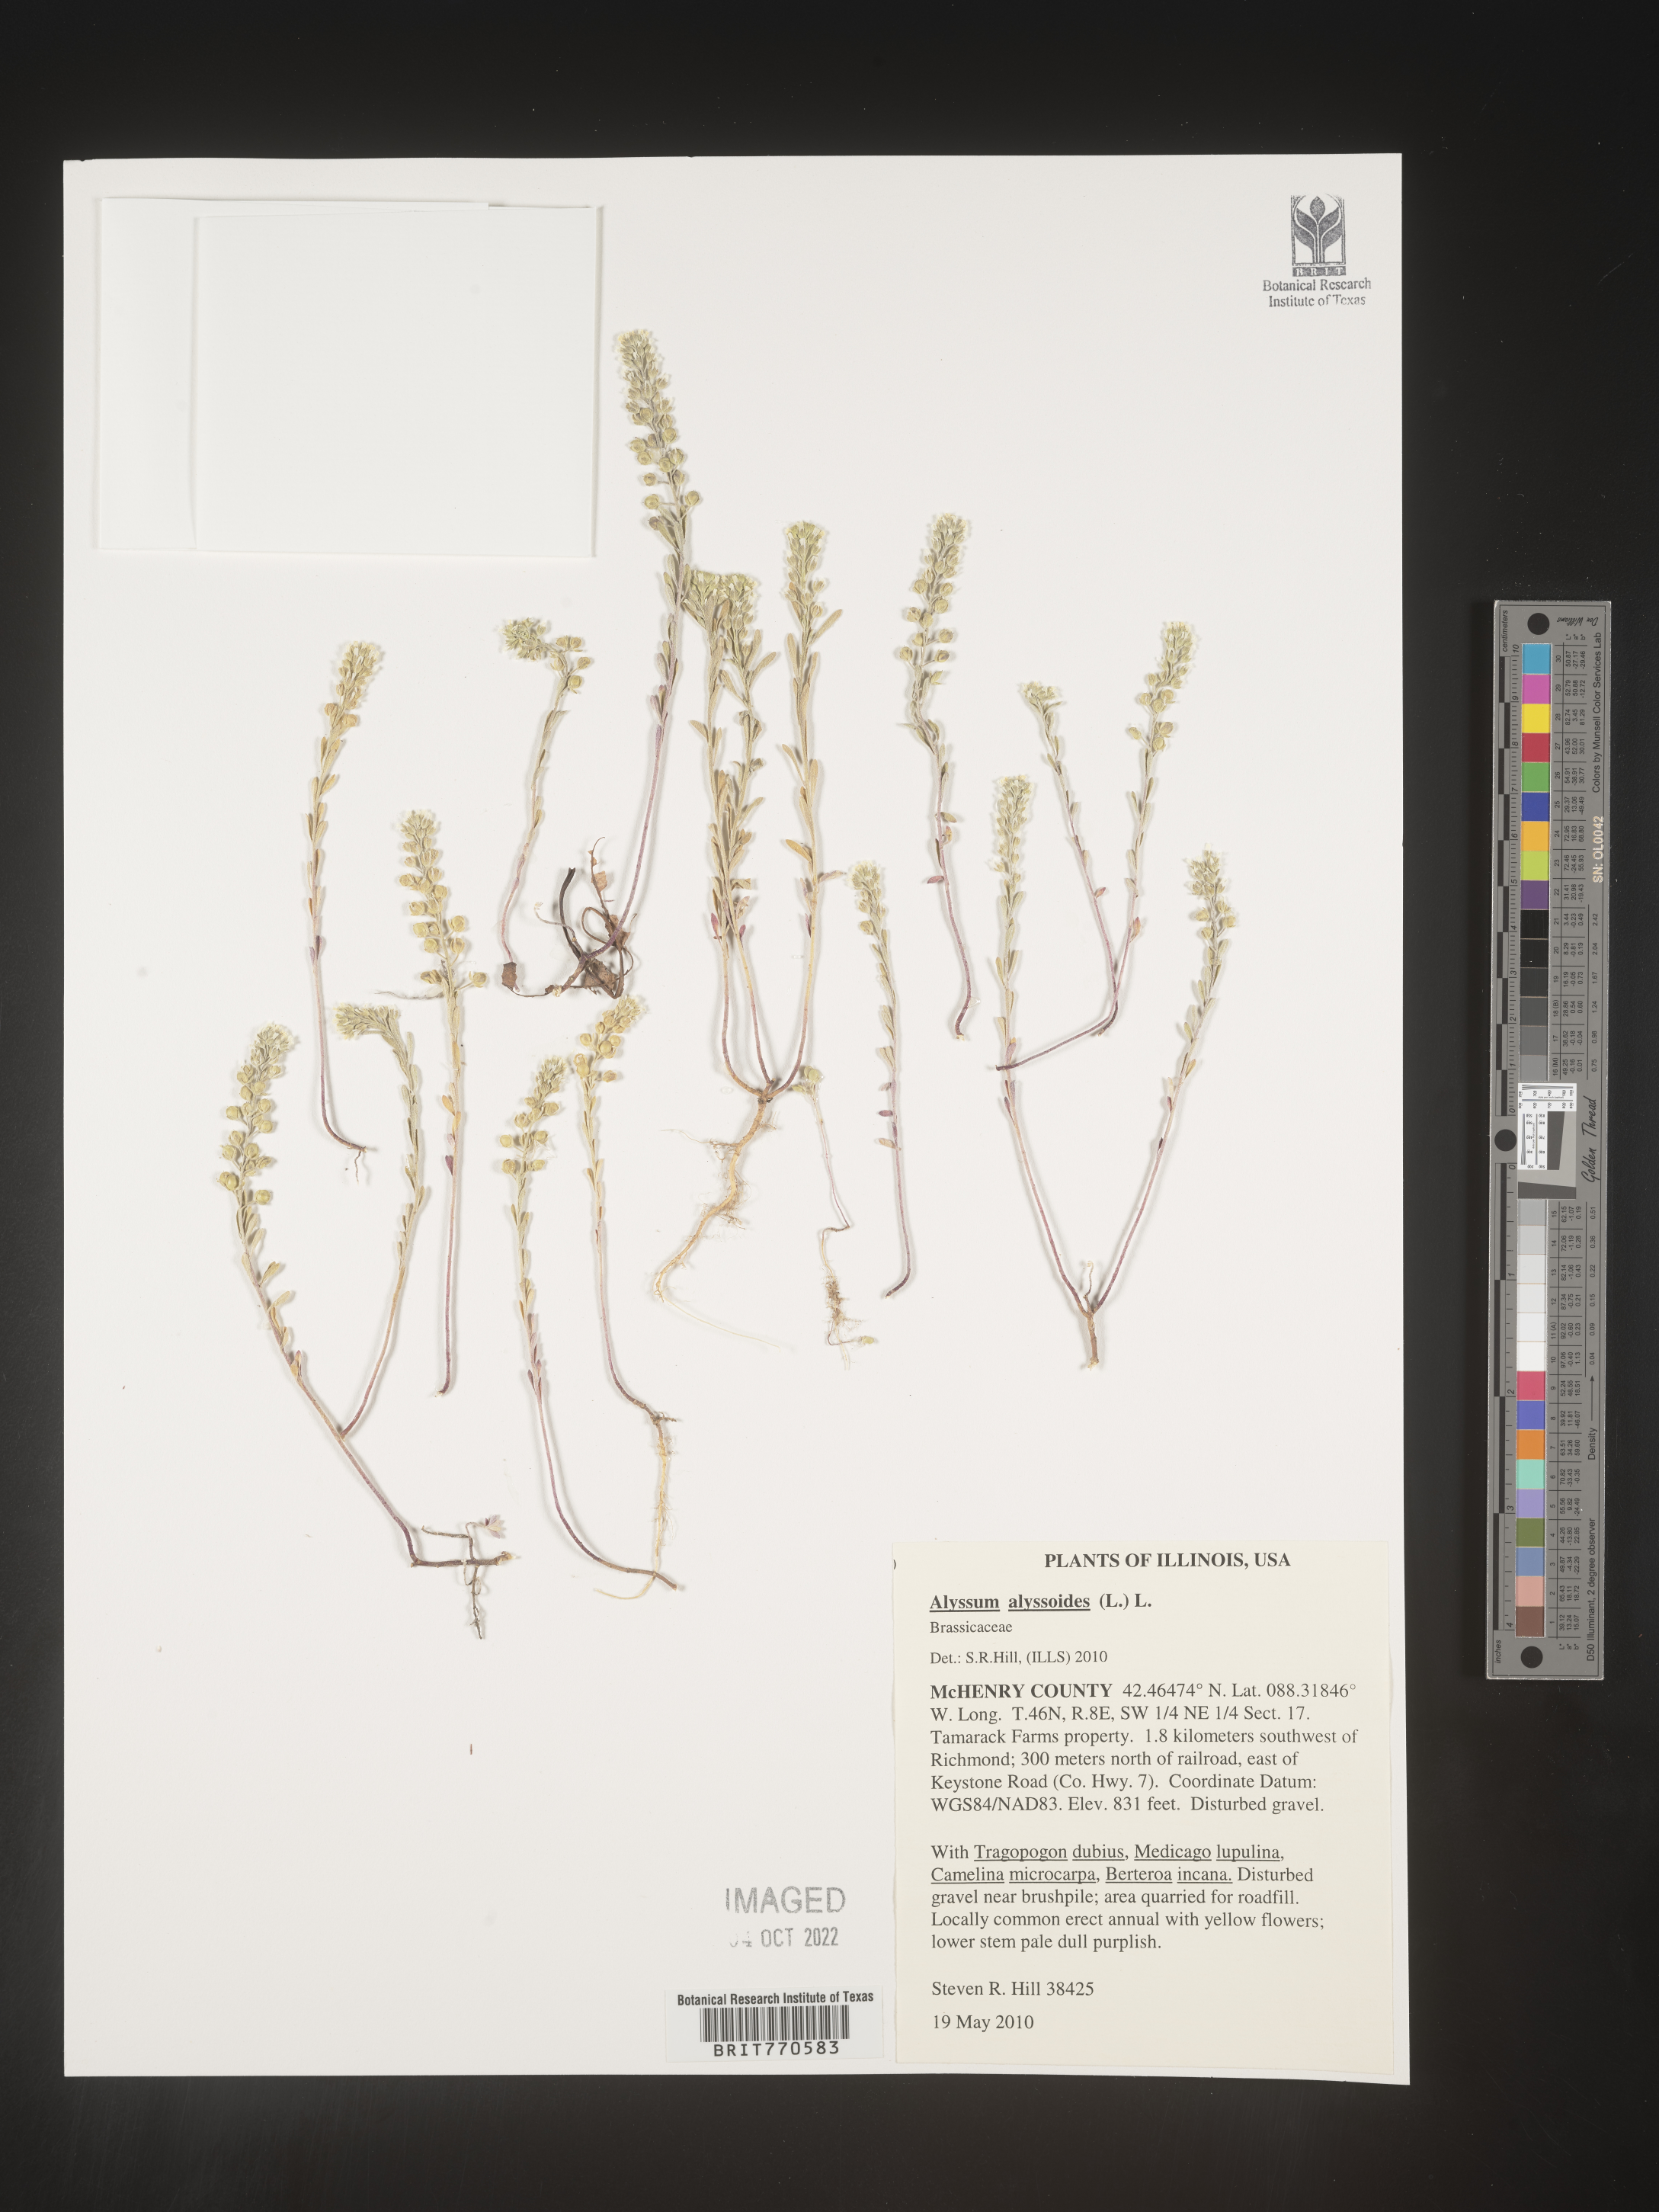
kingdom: Plantae
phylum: Tracheophyta
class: Magnoliopsida
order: Brassicales
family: Brassicaceae
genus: Alyssum
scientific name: Alyssum alyssoides
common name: Small alison
